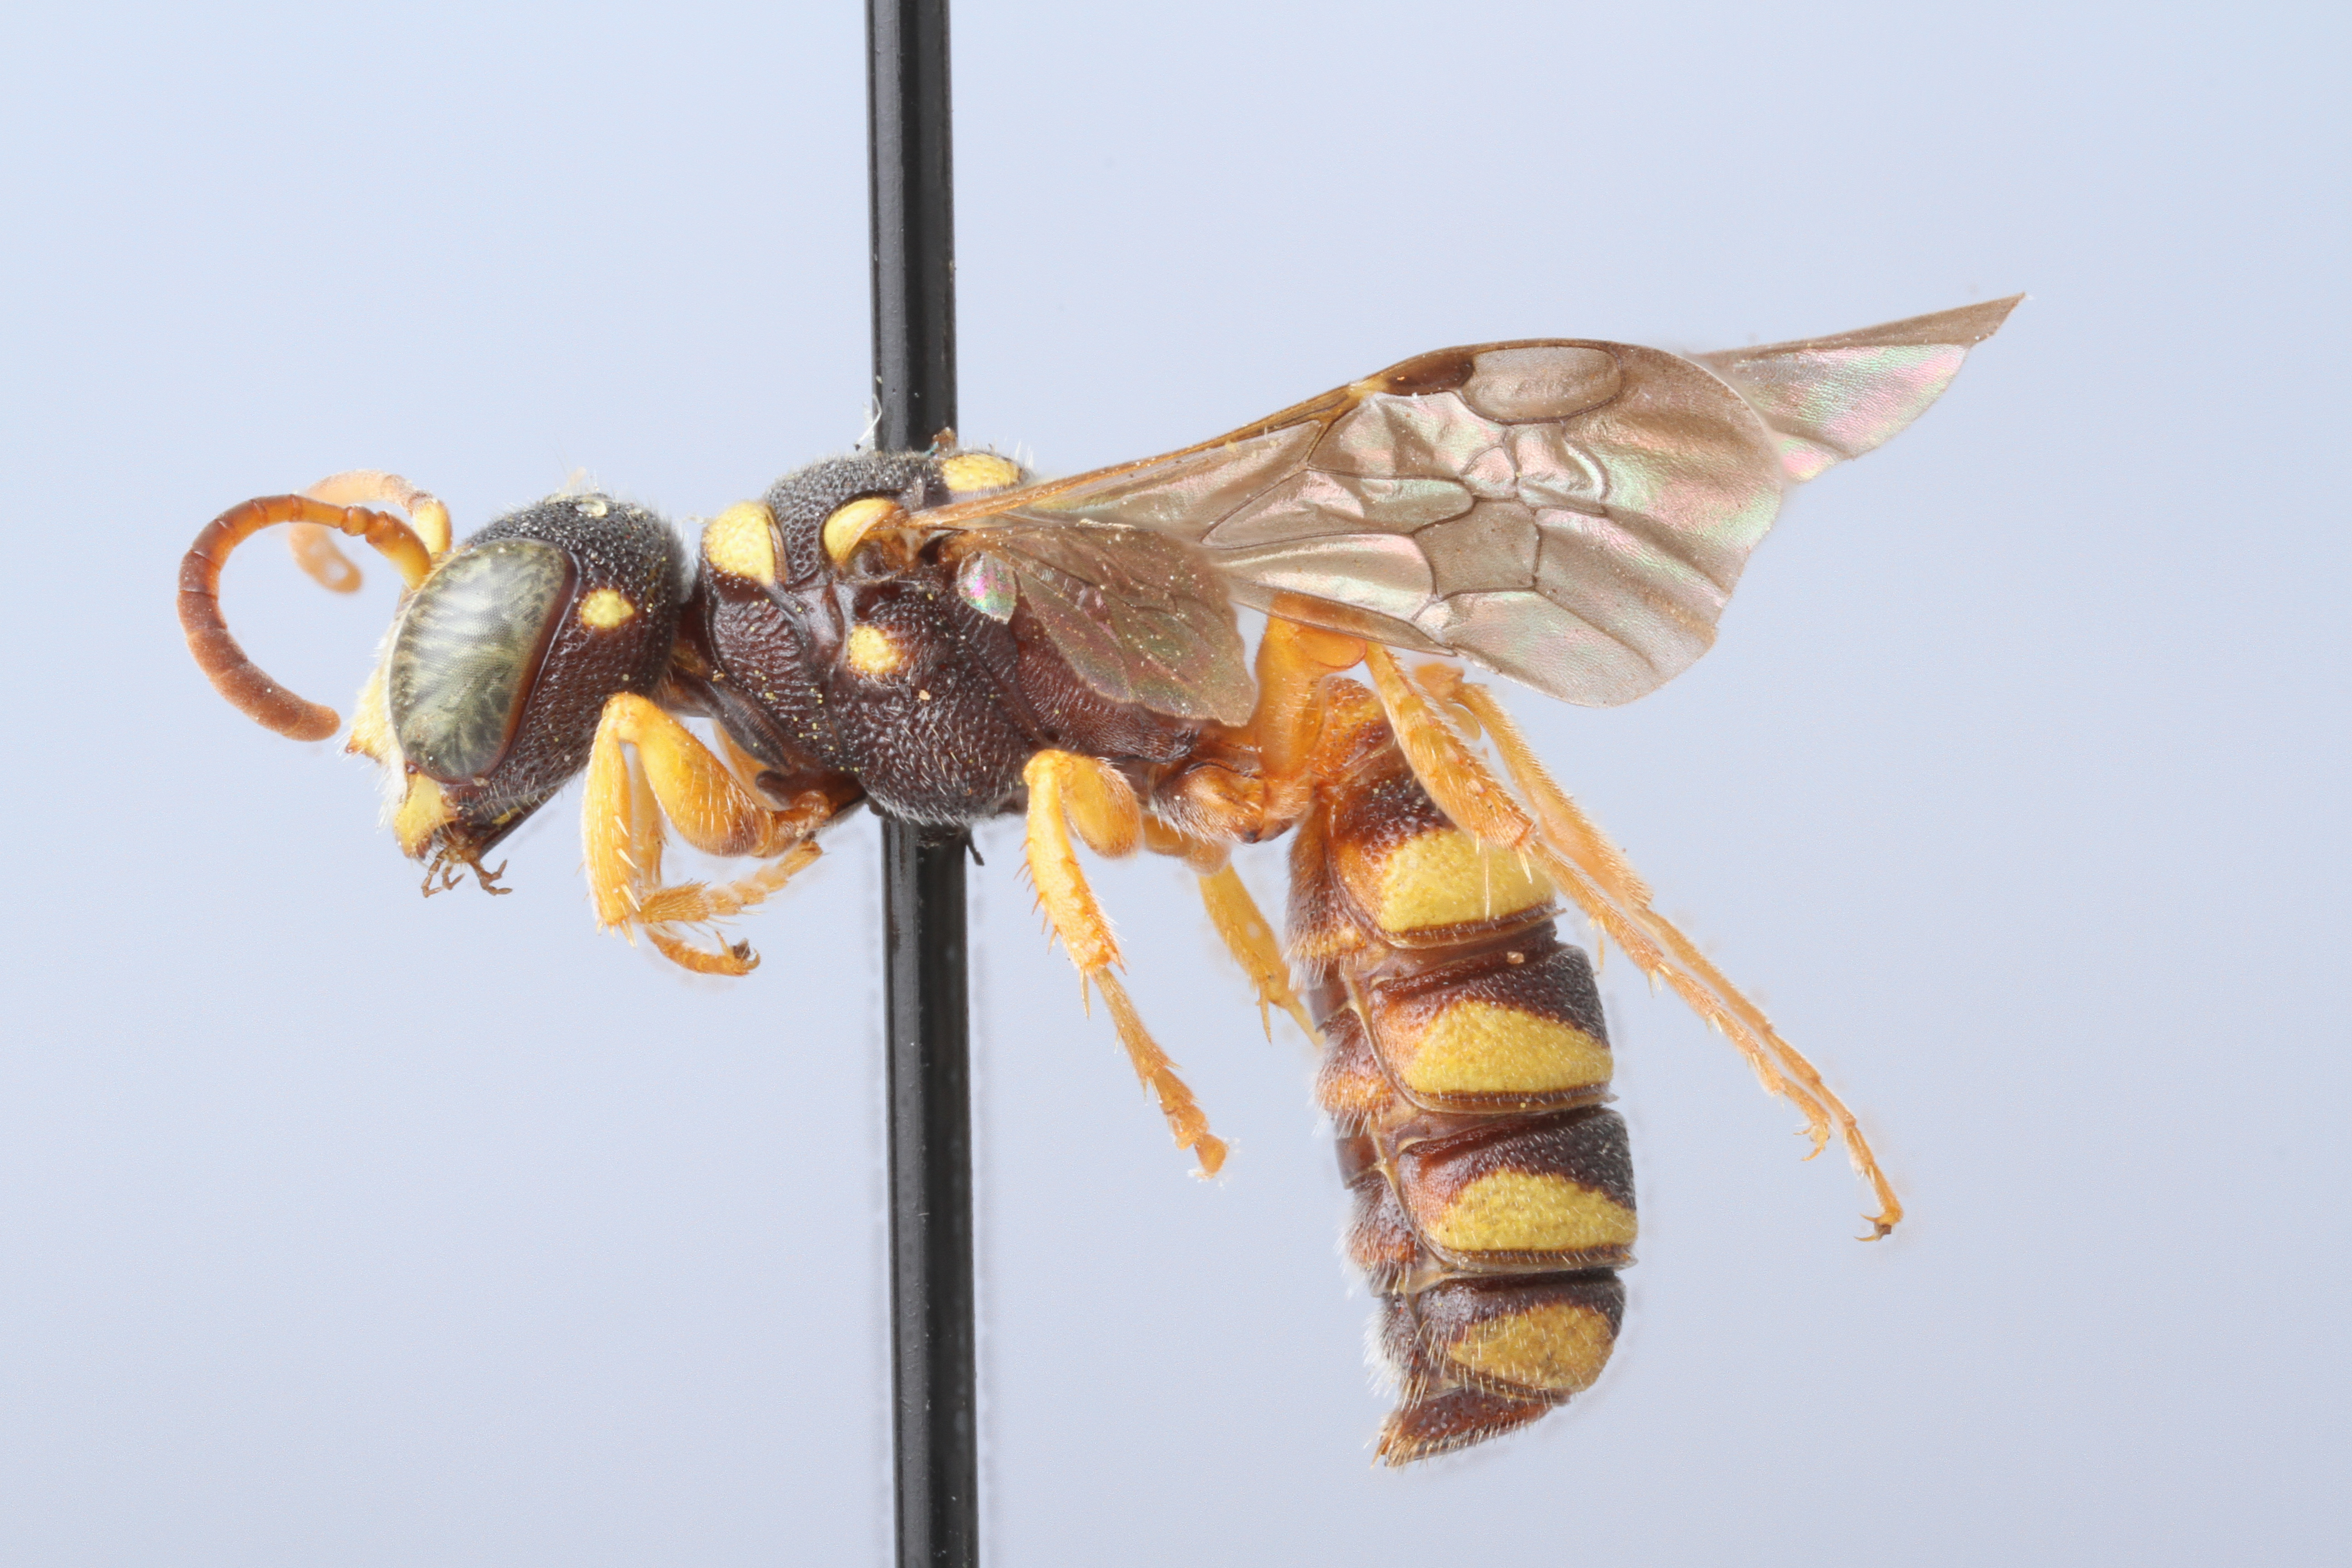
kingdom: Animalia
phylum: Arthropoda
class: Insecta
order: Hymenoptera
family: Crabronidae
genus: Cerceris
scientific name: Cerceris irene
